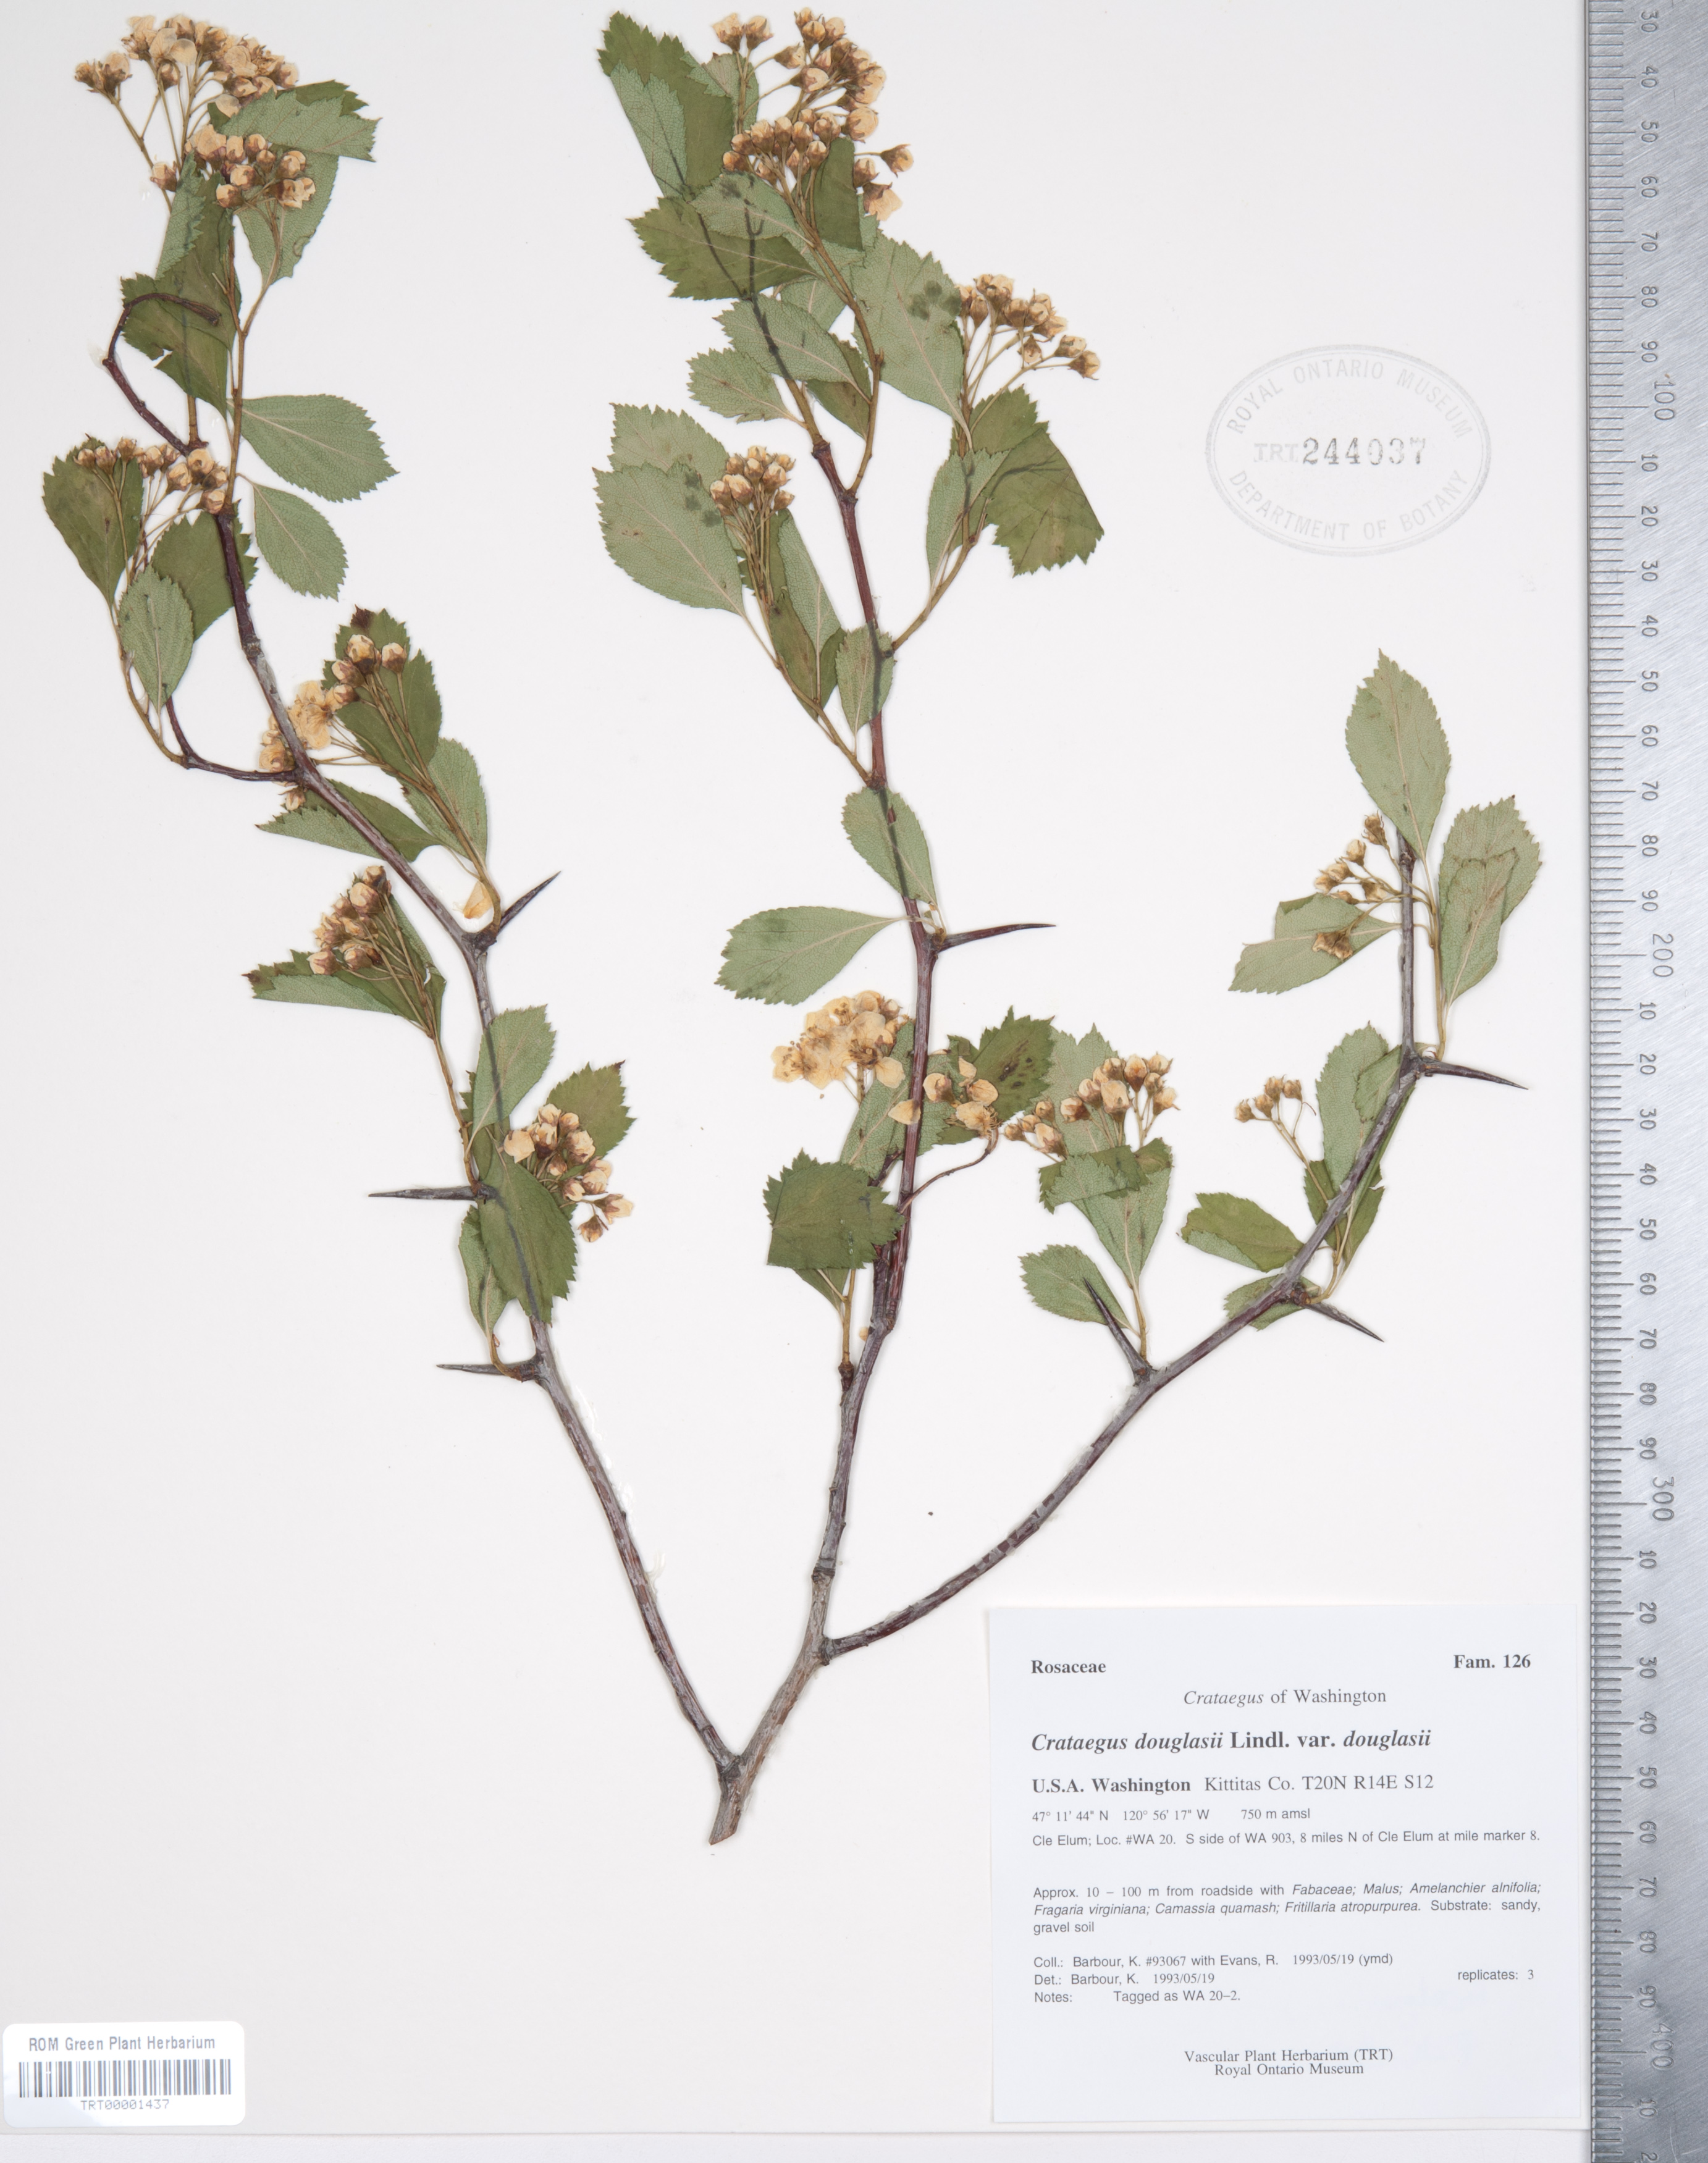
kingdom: Plantae
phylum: Tracheophyta
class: Magnoliopsida
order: Rosales
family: Rosaceae
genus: Crataegus
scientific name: Crataegus douglasii
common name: Black hawthorn
